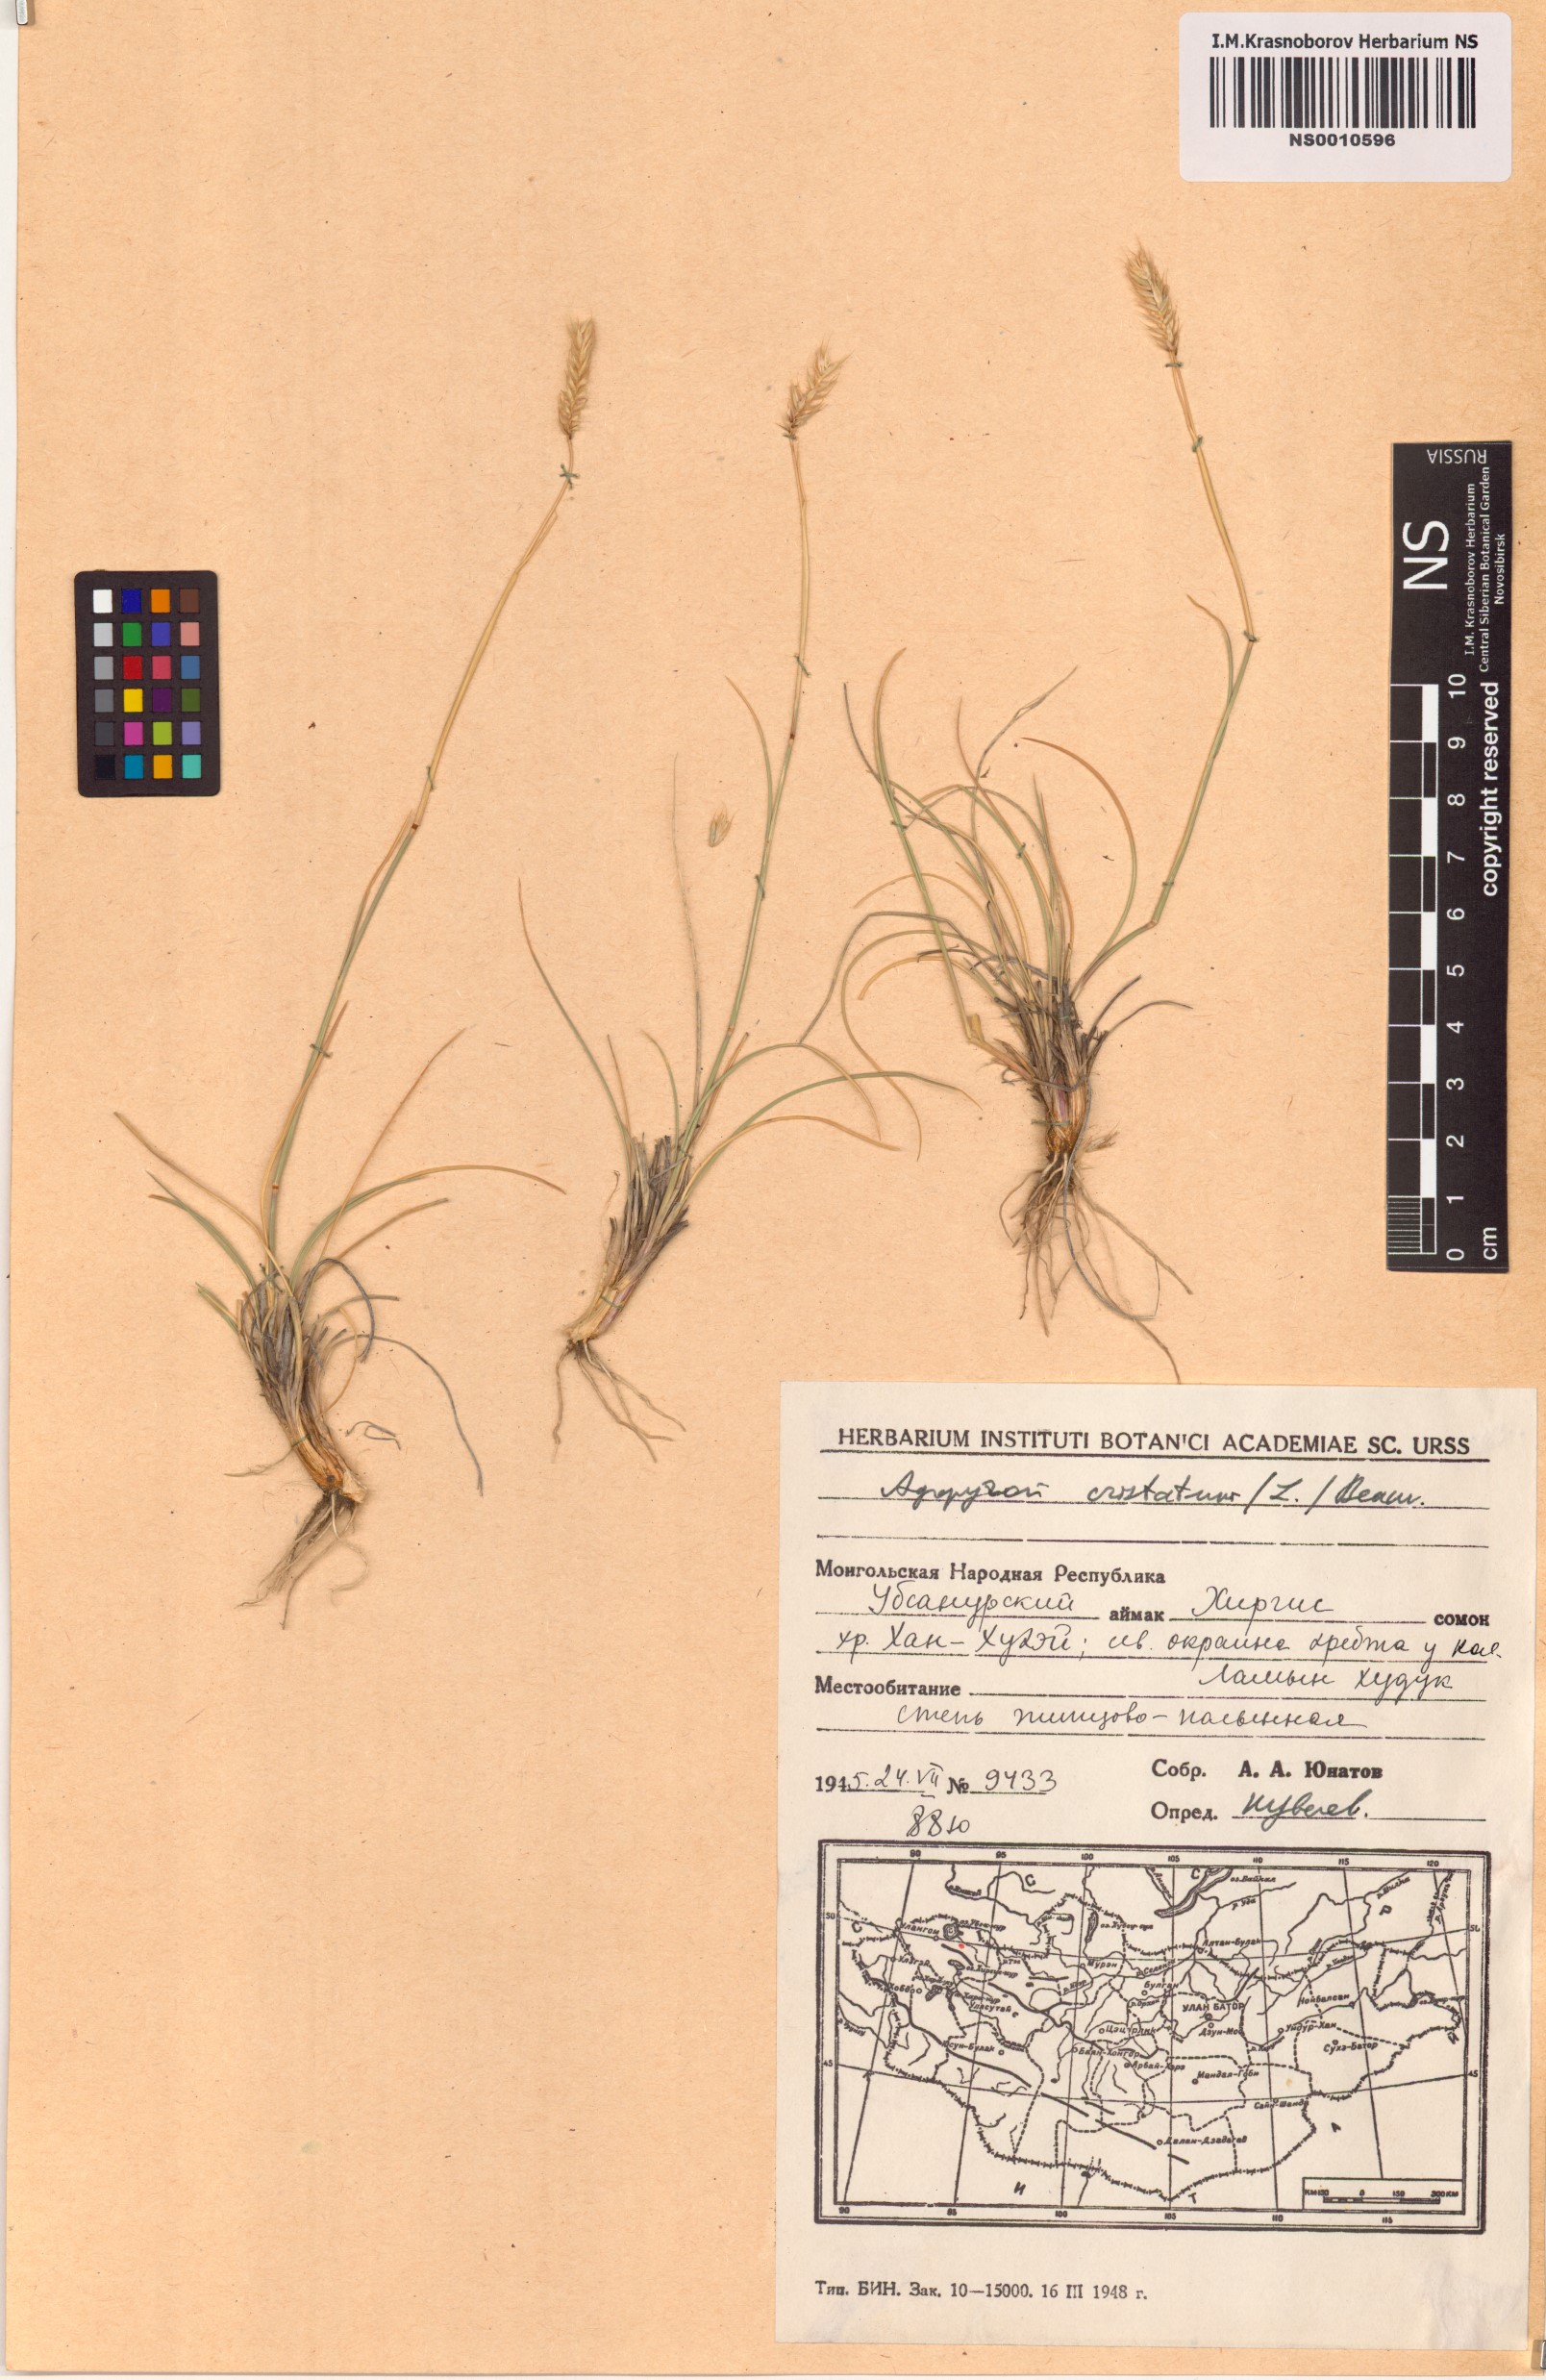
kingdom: Plantae
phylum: Tracheophyta
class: Liliopsida
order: Poales
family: Poaceae
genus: Agropyron
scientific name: Agropyron cristatum
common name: Crested wheatgrass
